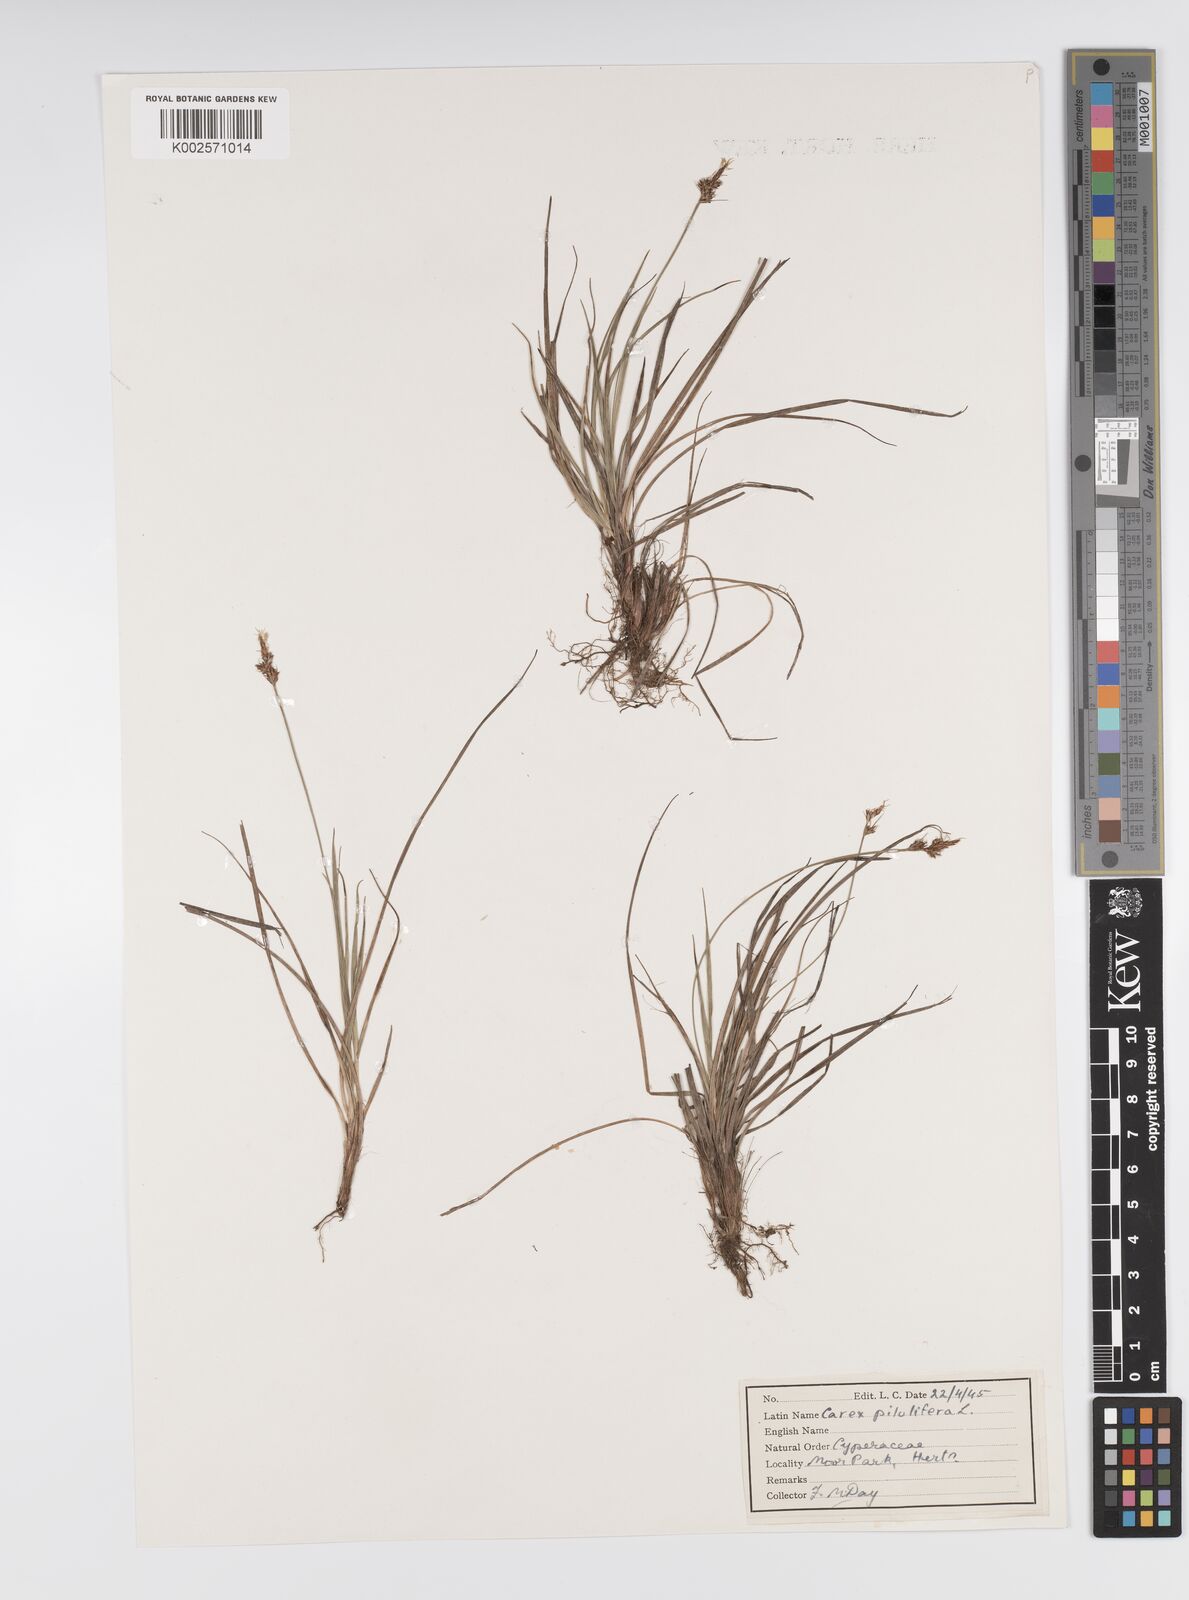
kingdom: Plantae
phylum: Tracheophyta
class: Liliopsida
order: Poales
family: Cyperaceae
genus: Carex
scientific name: Carex praecox
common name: Early sedge
